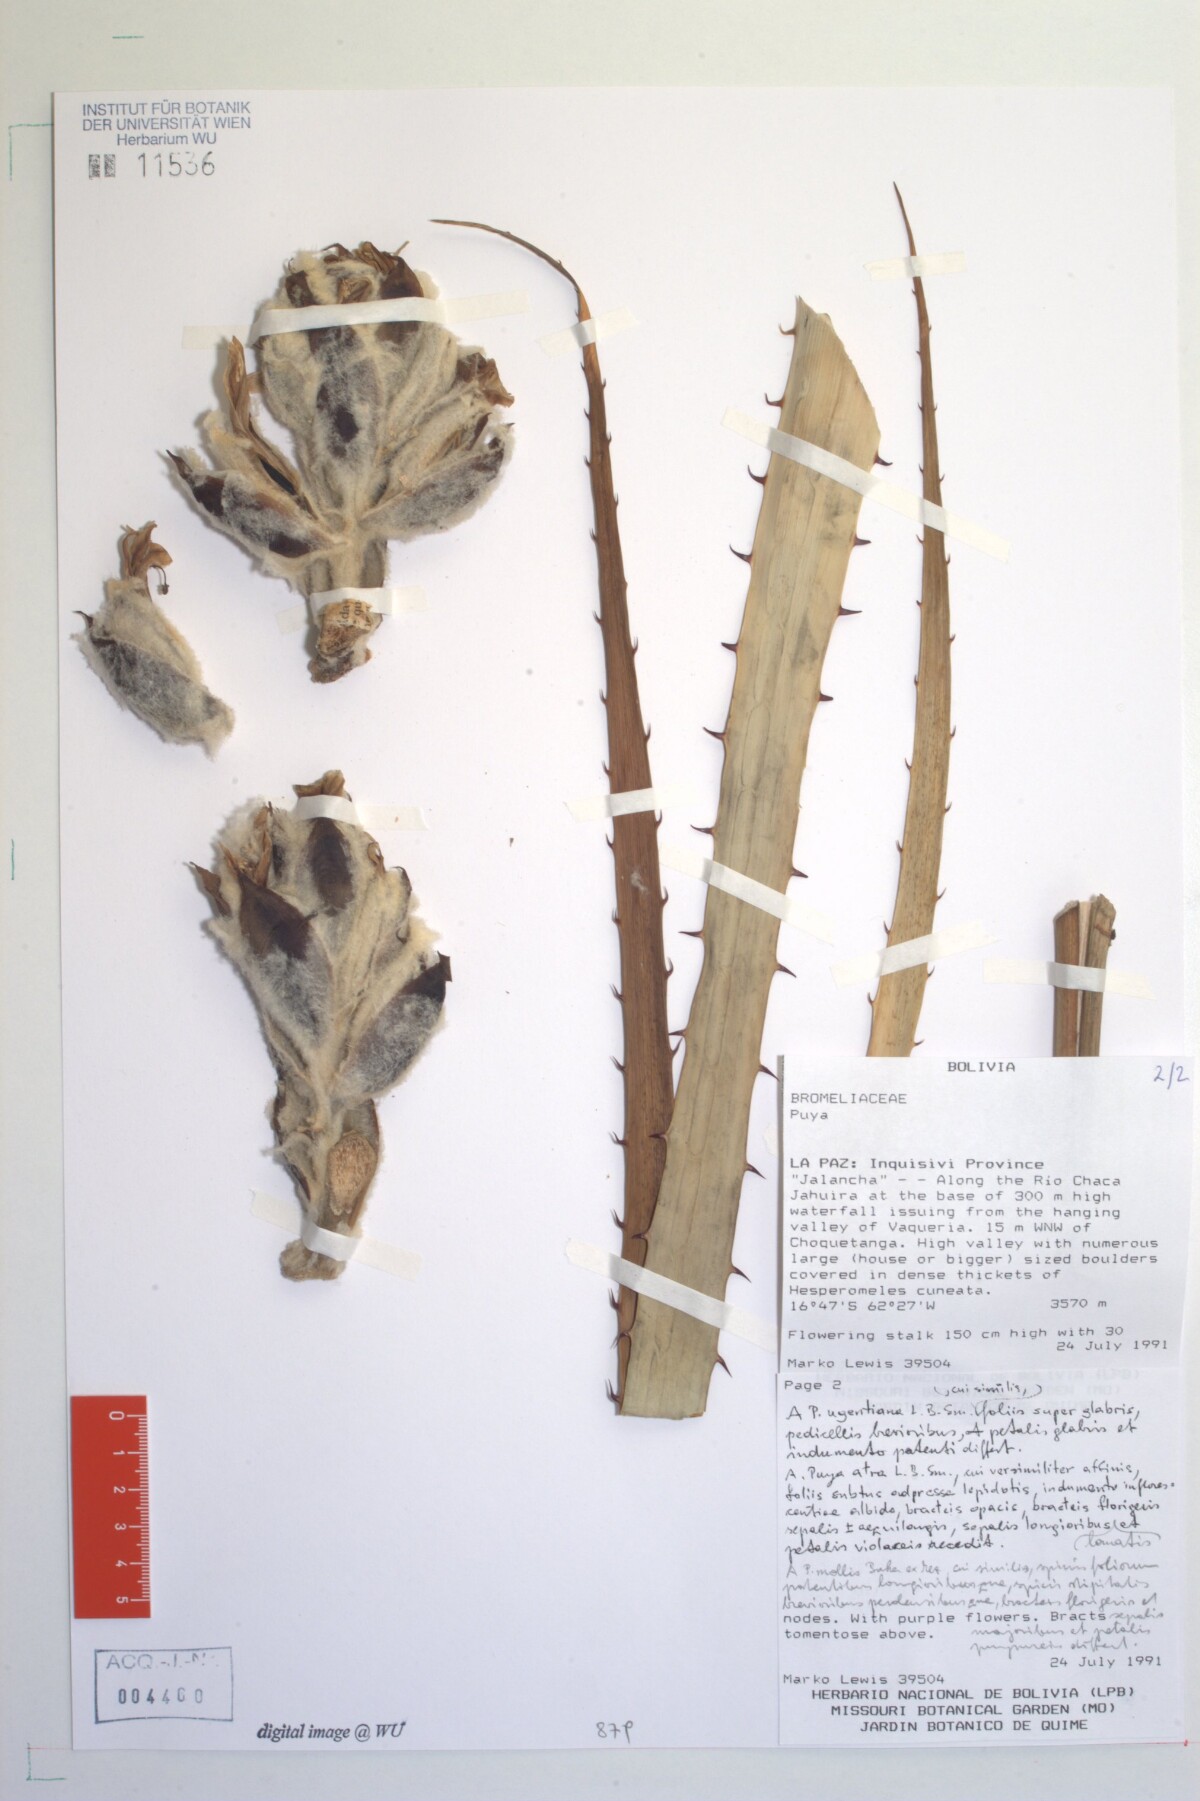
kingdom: Plantae
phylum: Tracheophyta
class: Liliopsida
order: Poales
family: Bromeliaceae
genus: Puya
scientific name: Puya
